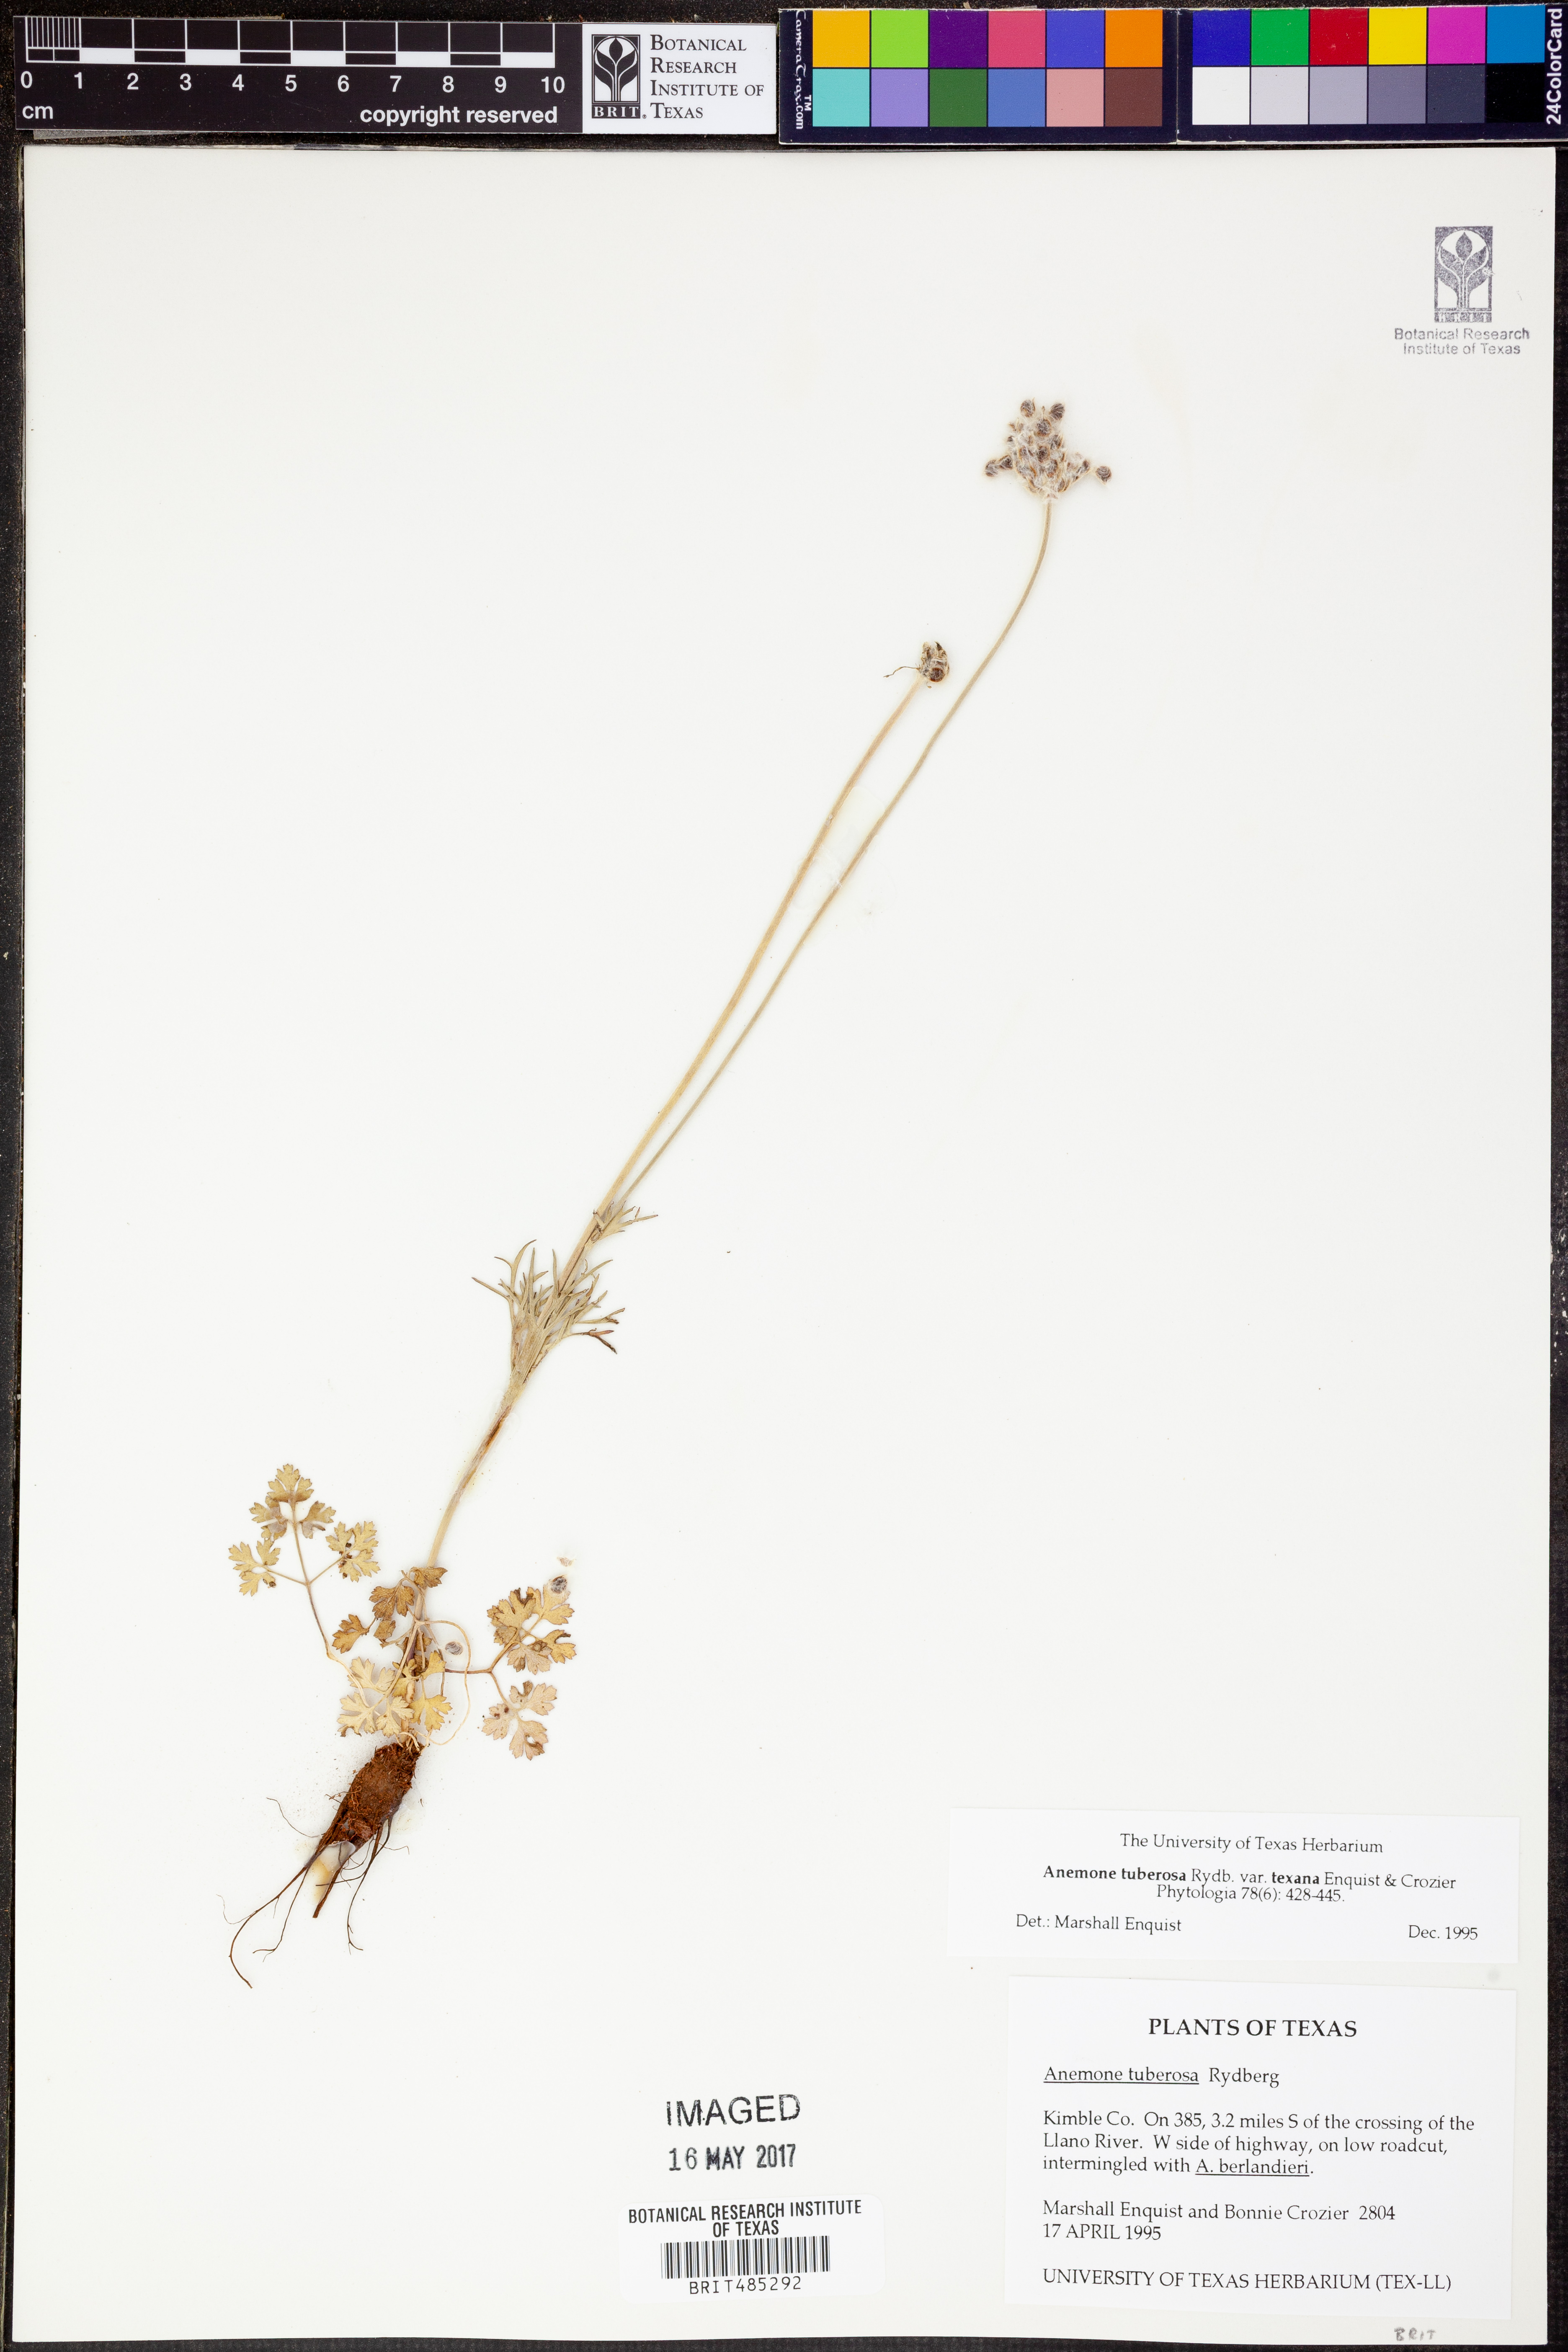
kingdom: Plantae
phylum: Tracheophyta
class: Magnoliopsida
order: Ranunculales
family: Ranunculaceae
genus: Anemone
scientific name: Anemone tuberosa
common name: Desert anemone
